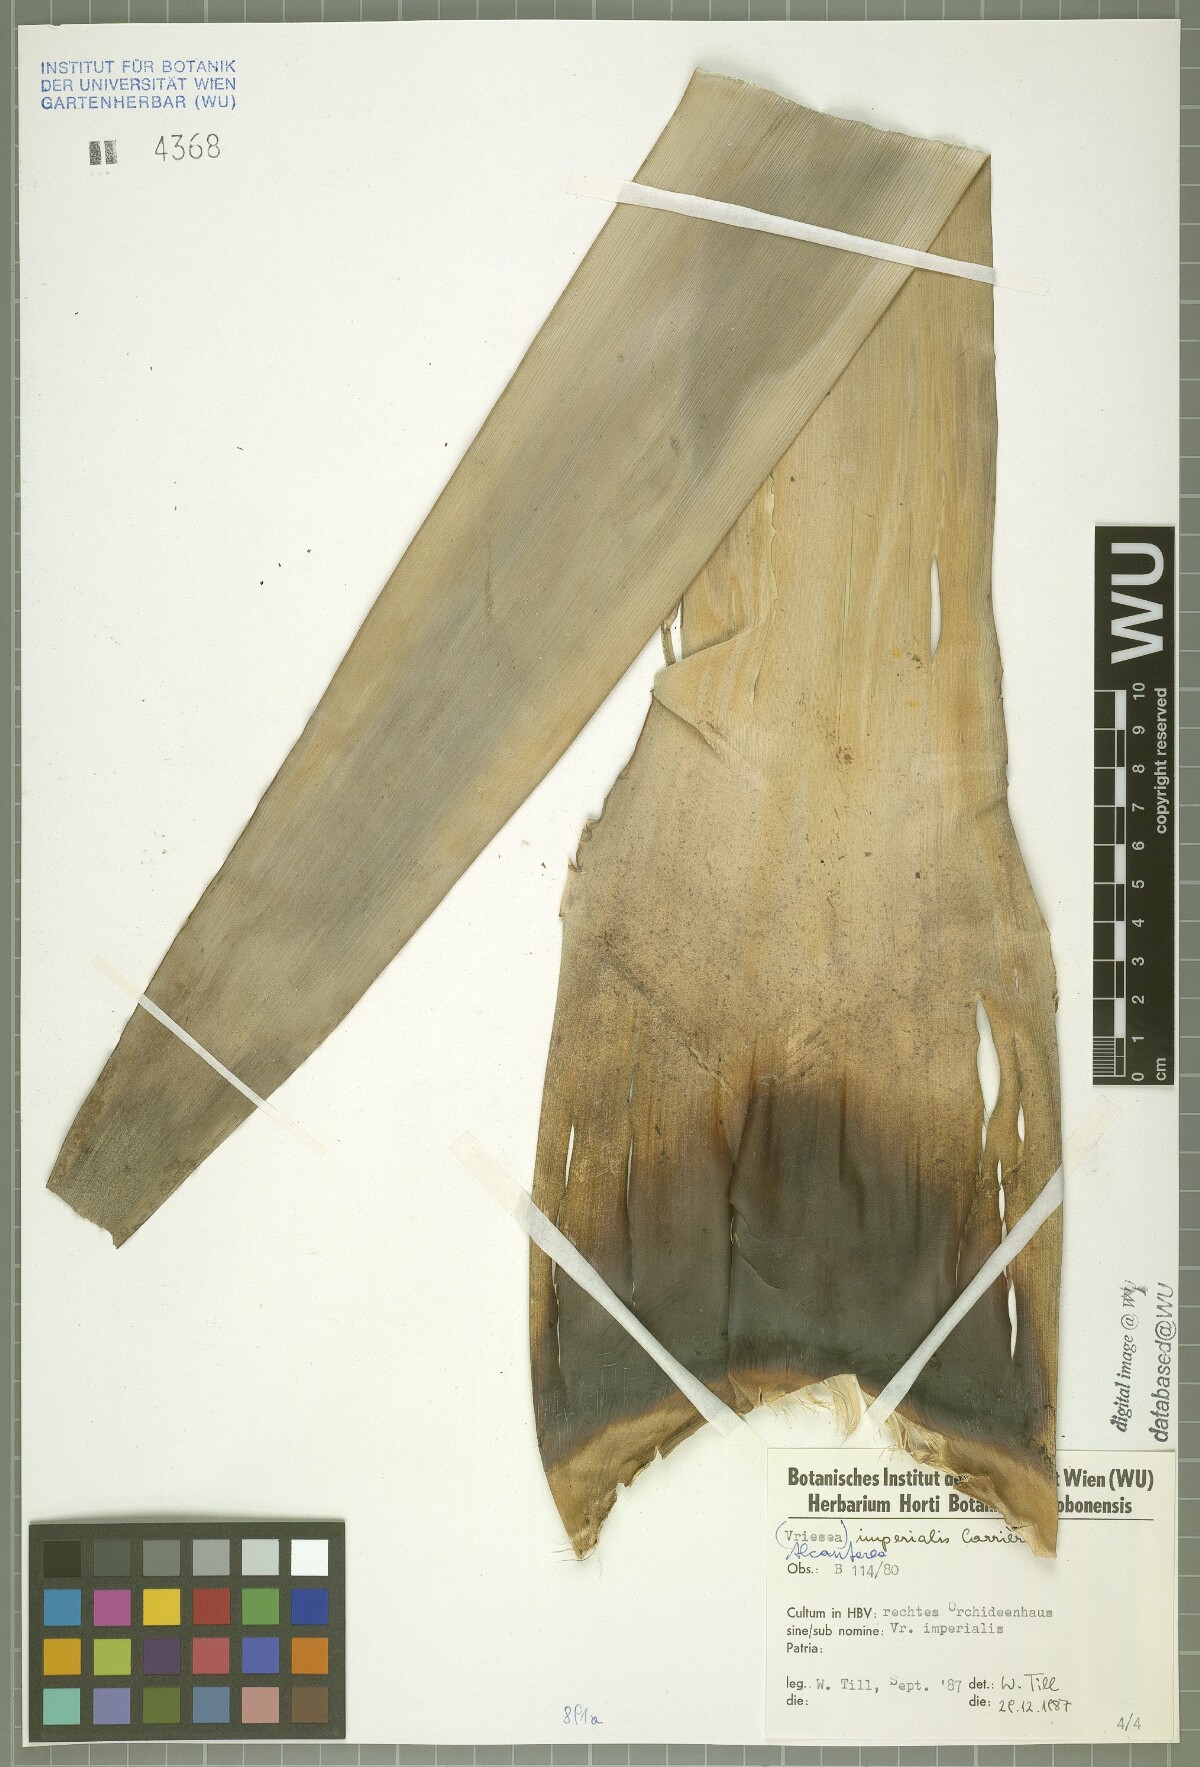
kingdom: Plantae
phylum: Tracheophyta
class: Liliopsida
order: Poales
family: Bromeliaceae
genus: Alcantarea
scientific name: Alcantarea imperialis
